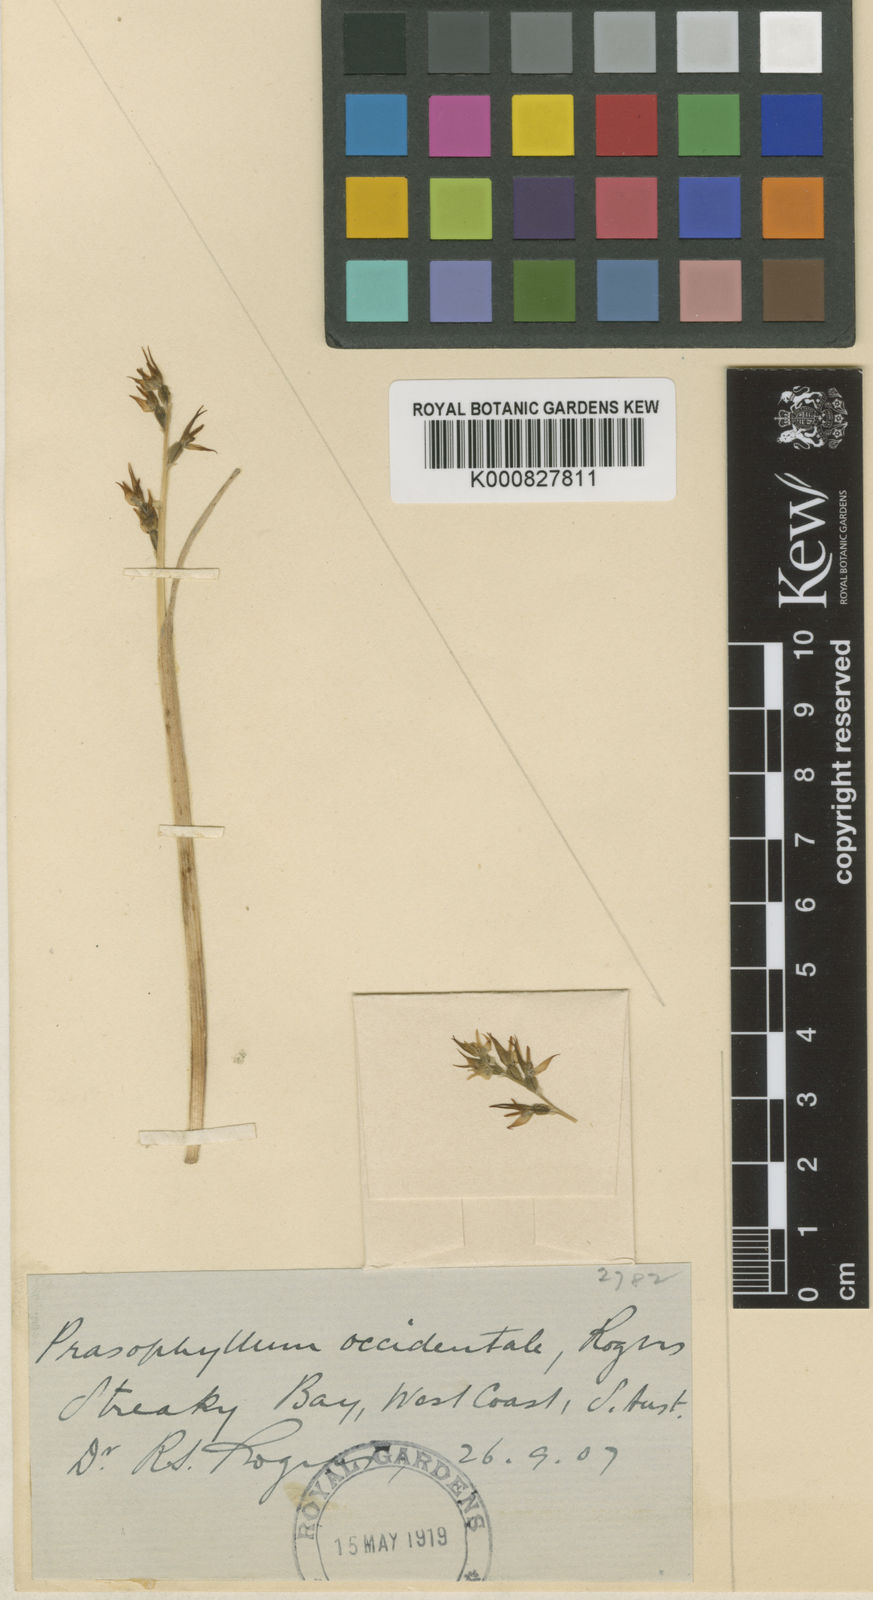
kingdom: Plantae
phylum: Tracheophyta
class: Liliopsida
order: Asparagales
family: Orchidaceae
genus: Prasophyllum
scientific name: Prasophyllum occidentale
